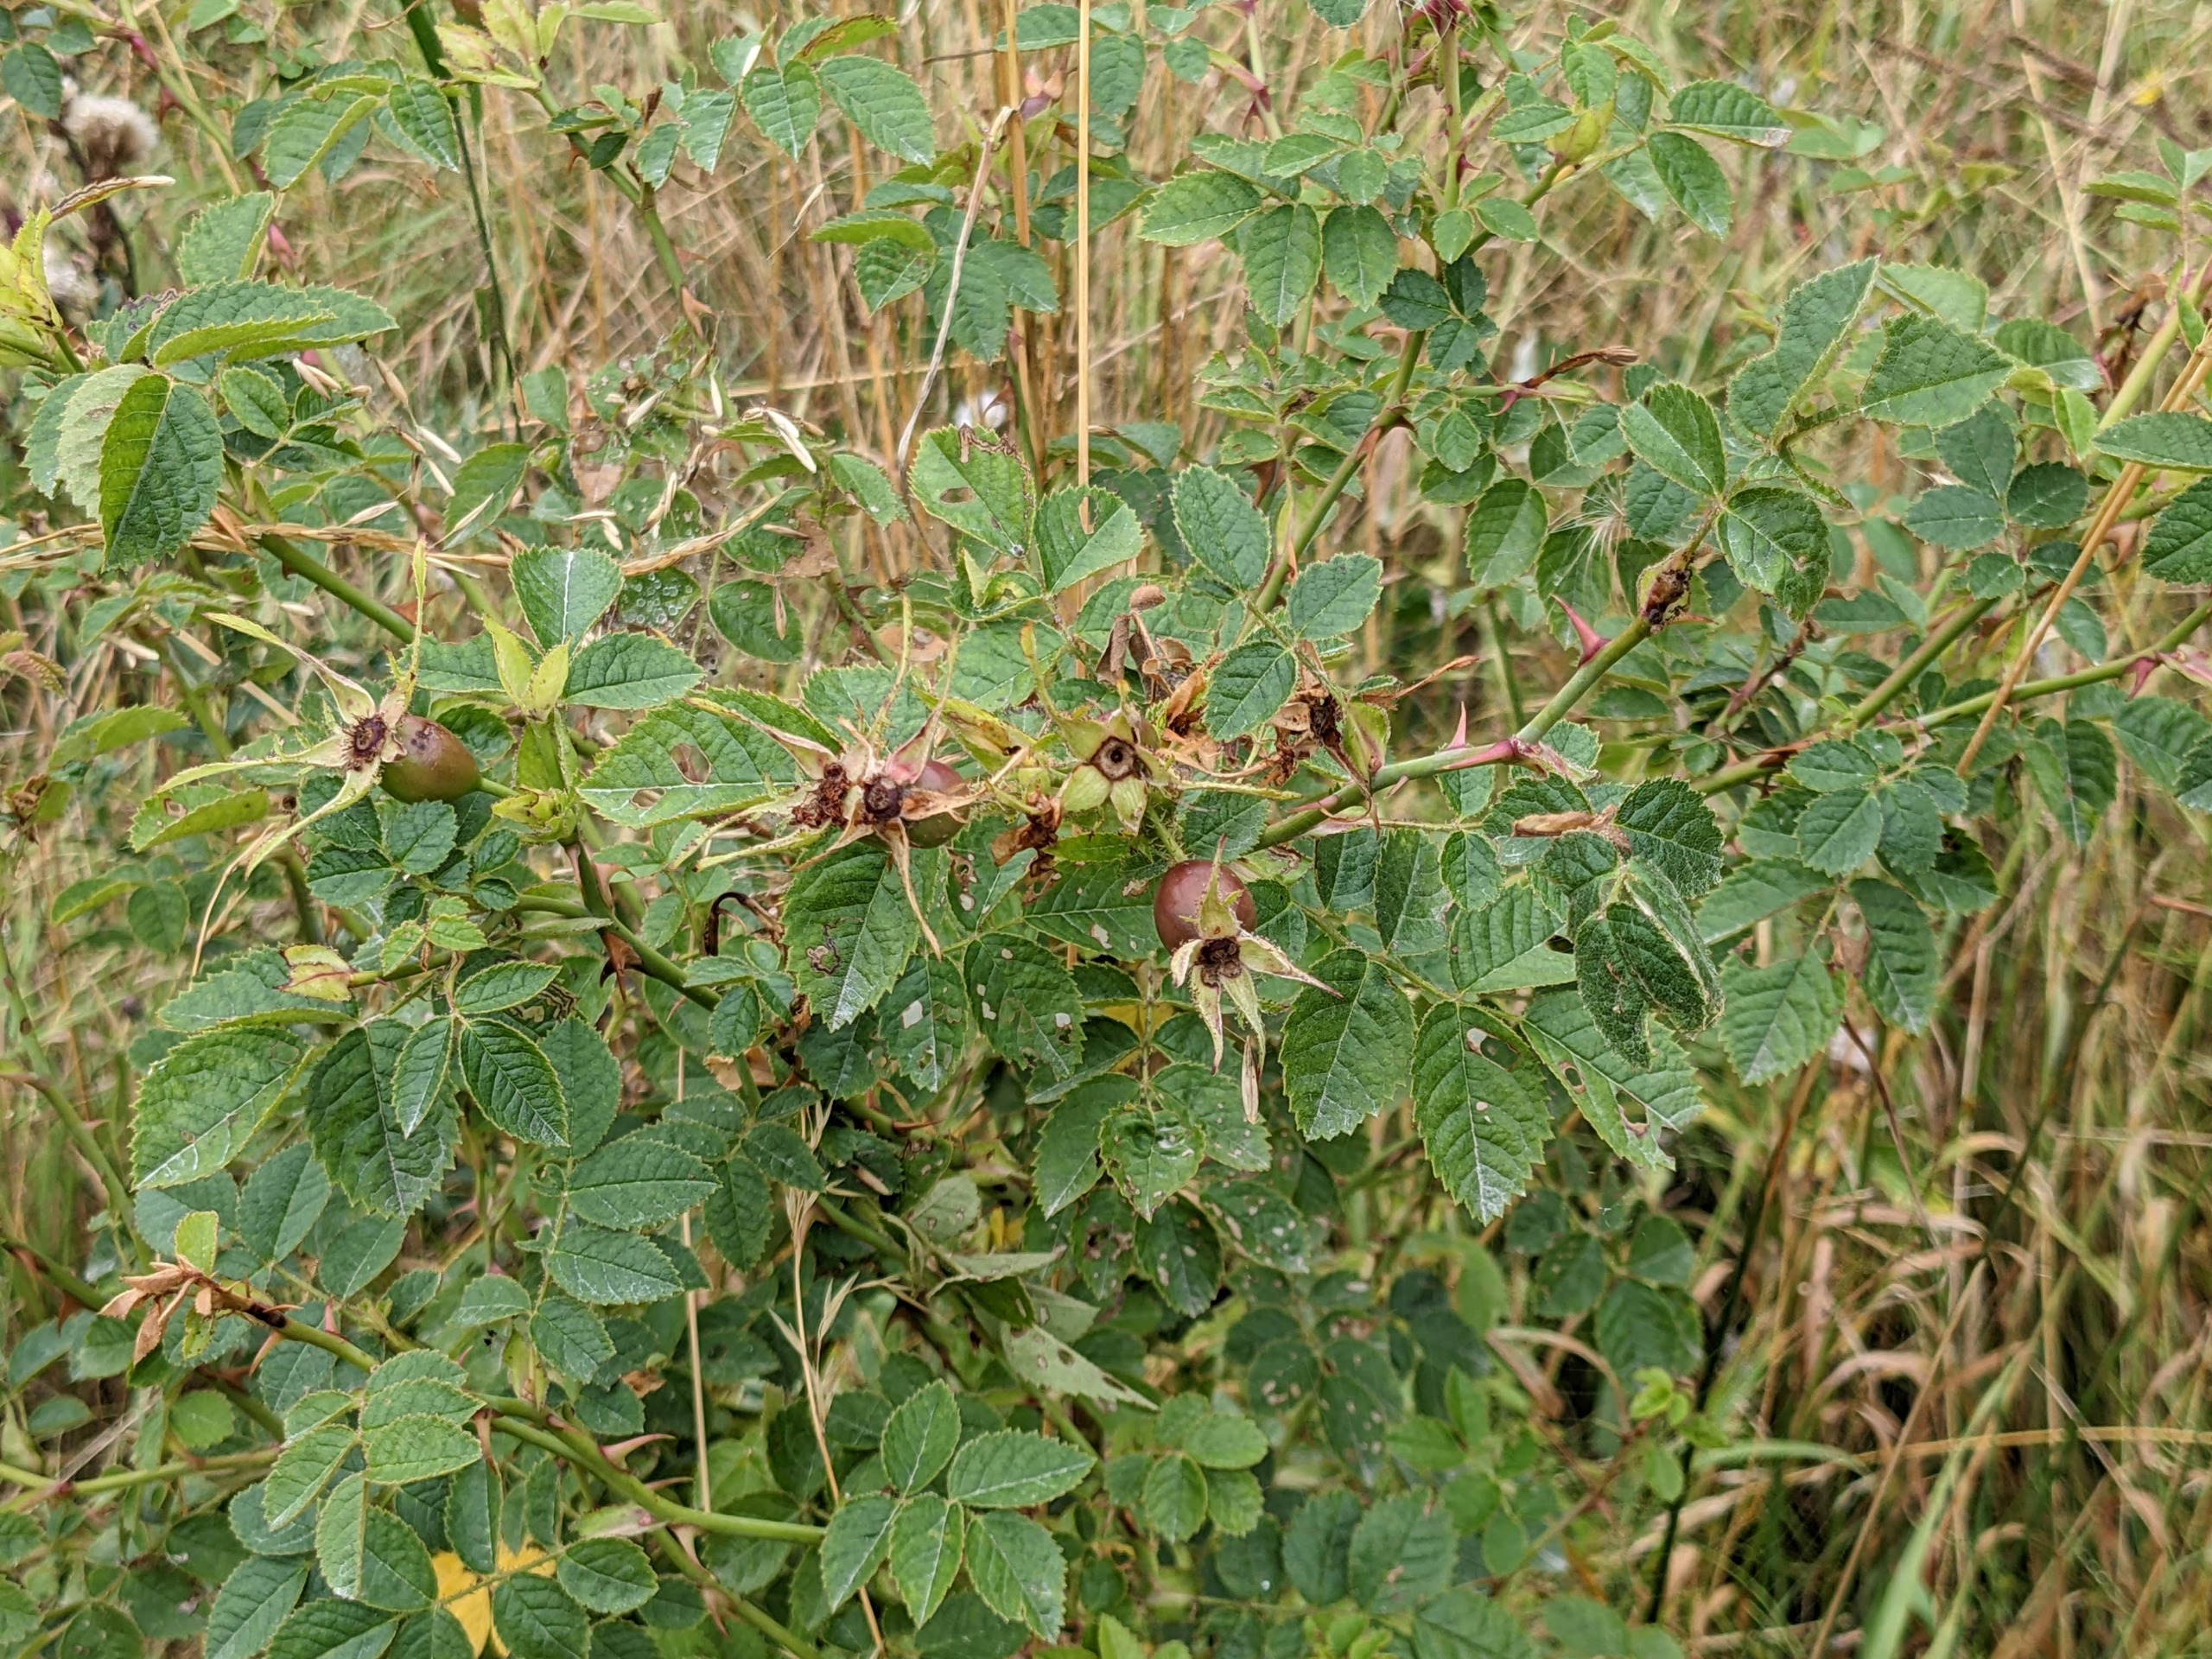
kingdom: Plantae
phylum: Tracheophyta
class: Magnoliopsida
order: Rosales
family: Rosaceae
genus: Rosa
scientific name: Rosa rubiginosa
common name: Æble-rose
